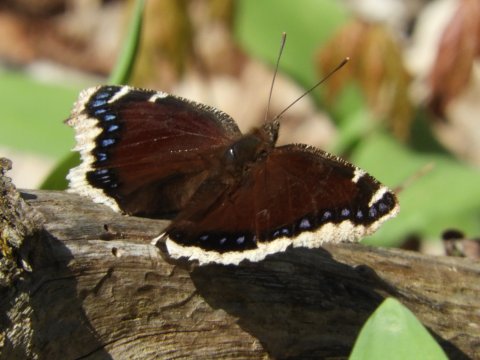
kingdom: Animalia
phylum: Arthropoda
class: Insecta
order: Lepidoptera
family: Nymphalidae
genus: Nymphalis
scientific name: Nymphalis antiopa
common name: Mourning Cloak
